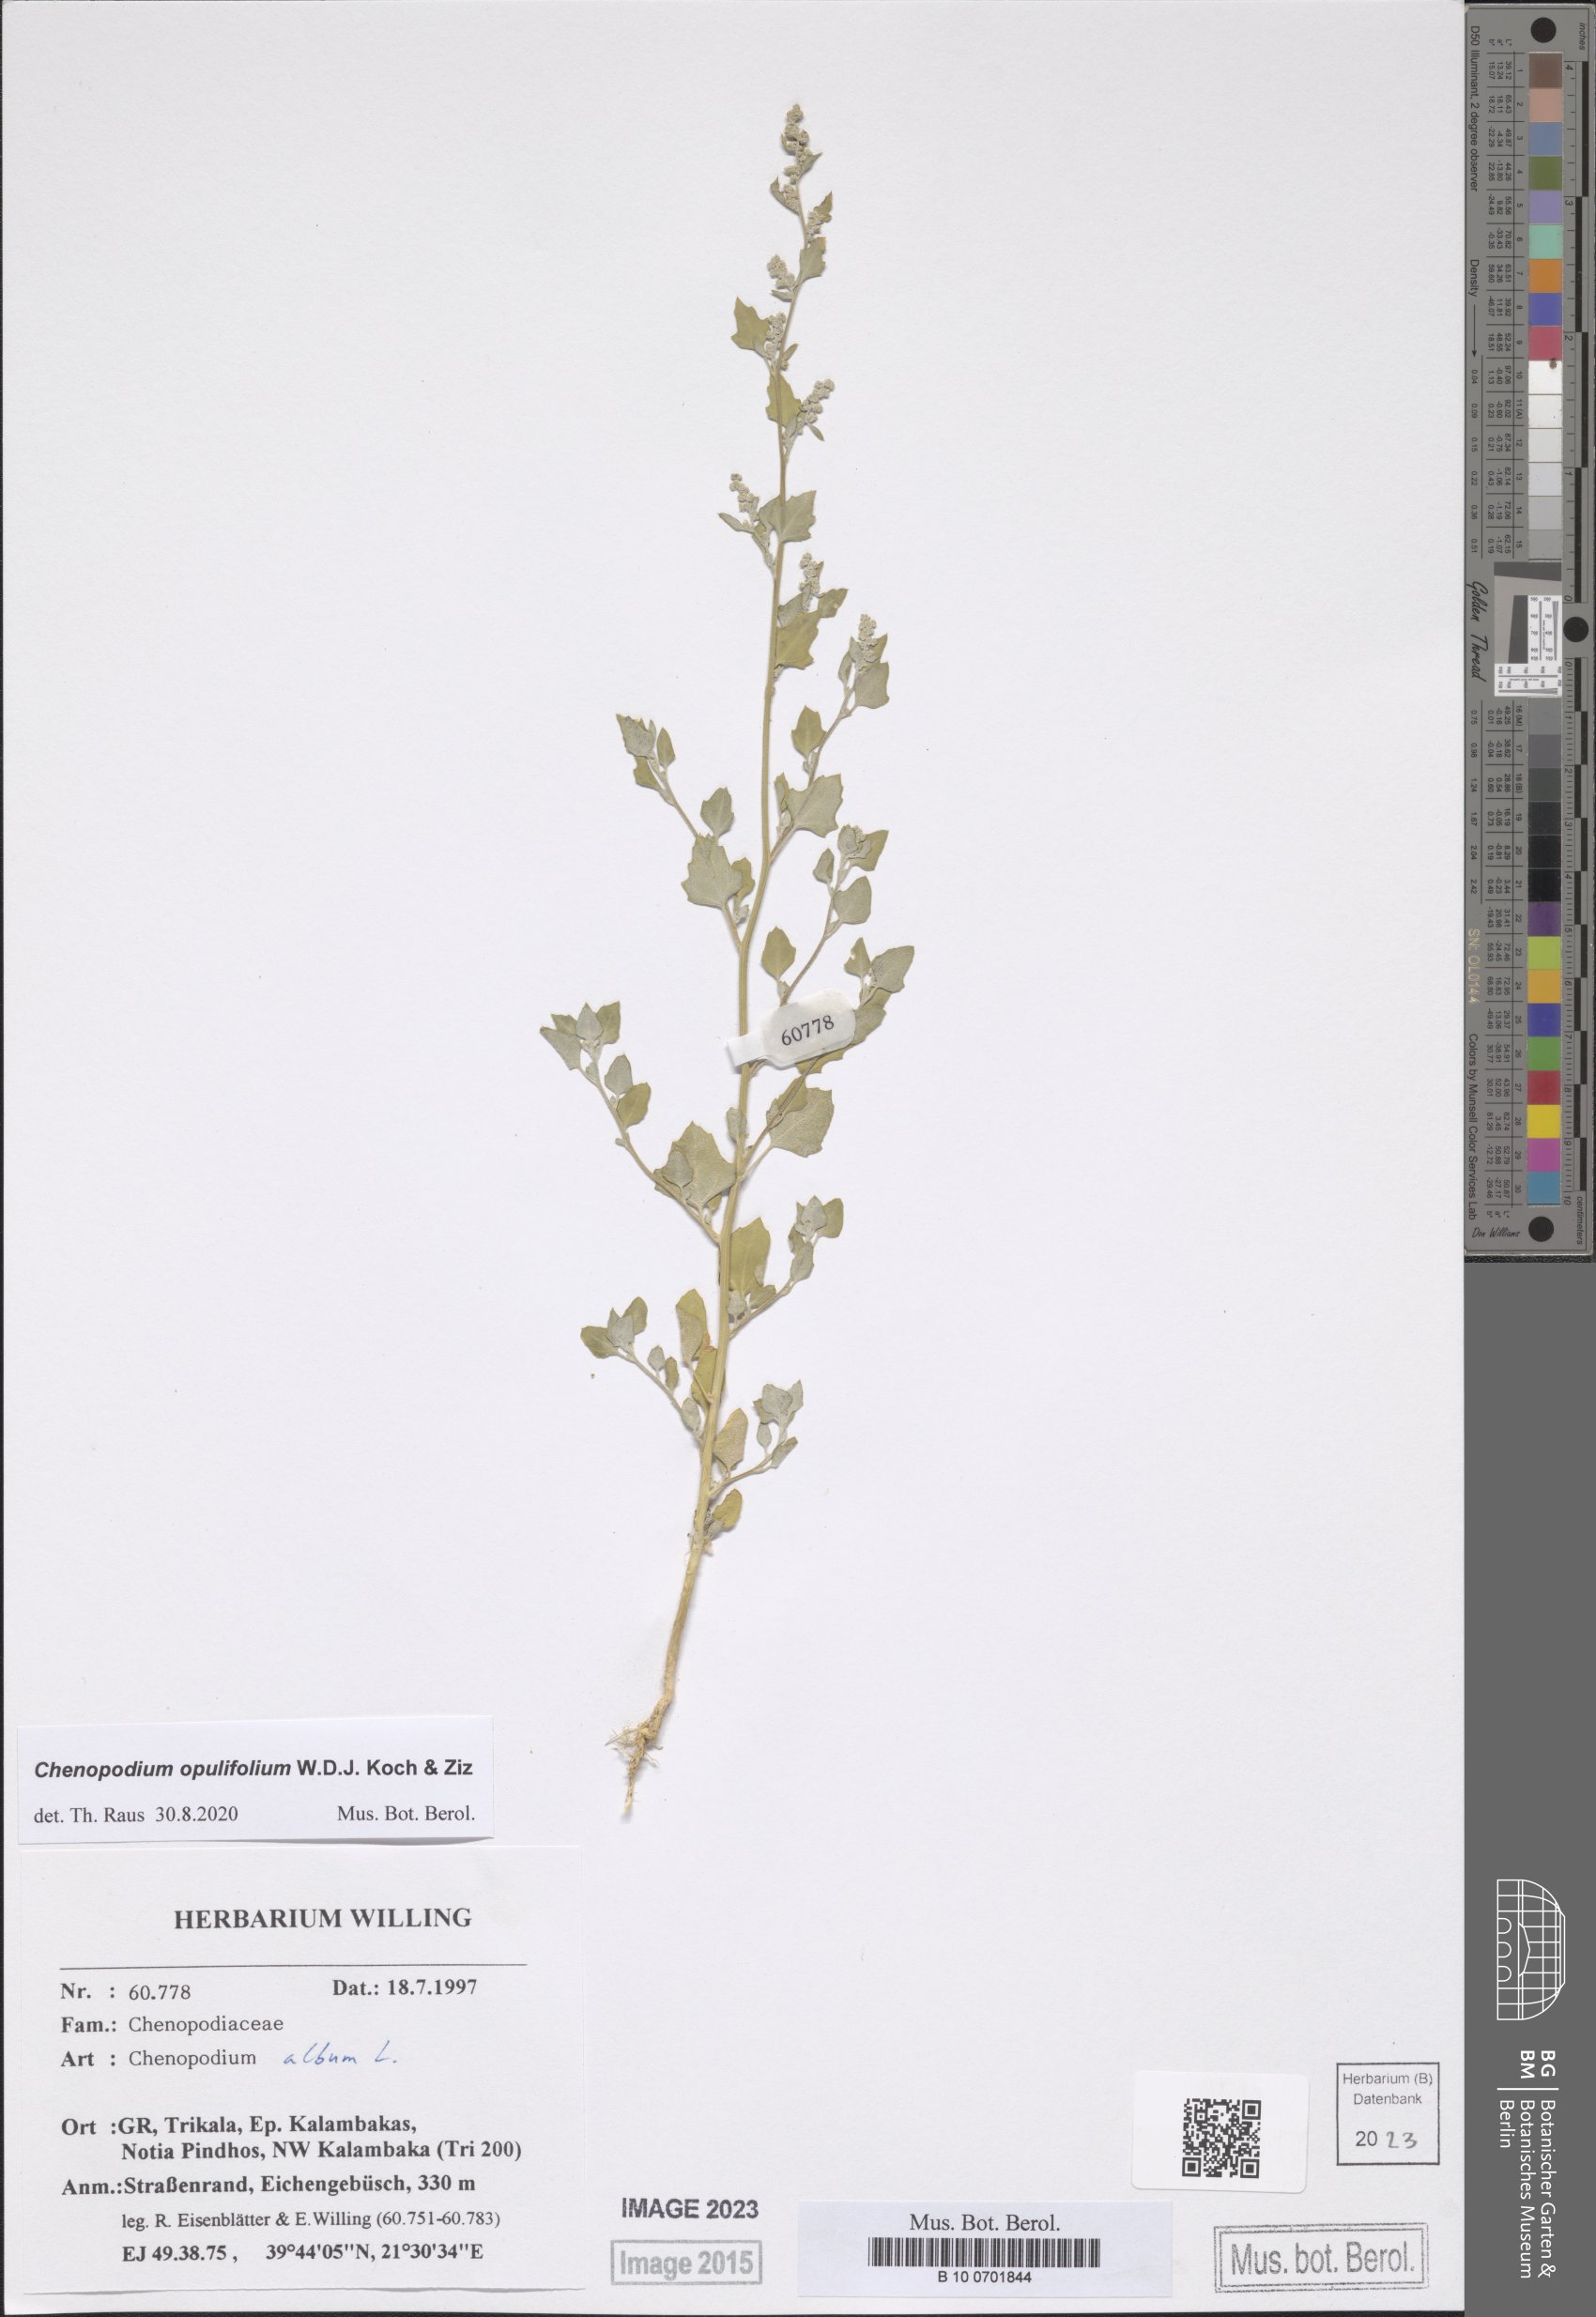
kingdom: Plantae
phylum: Tracheophyta
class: Magnoliopsida
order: Caryophyllales
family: Amaranthaceae
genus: Chenopodium
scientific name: Chenopodium opulifolium
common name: Grey goosefoot
